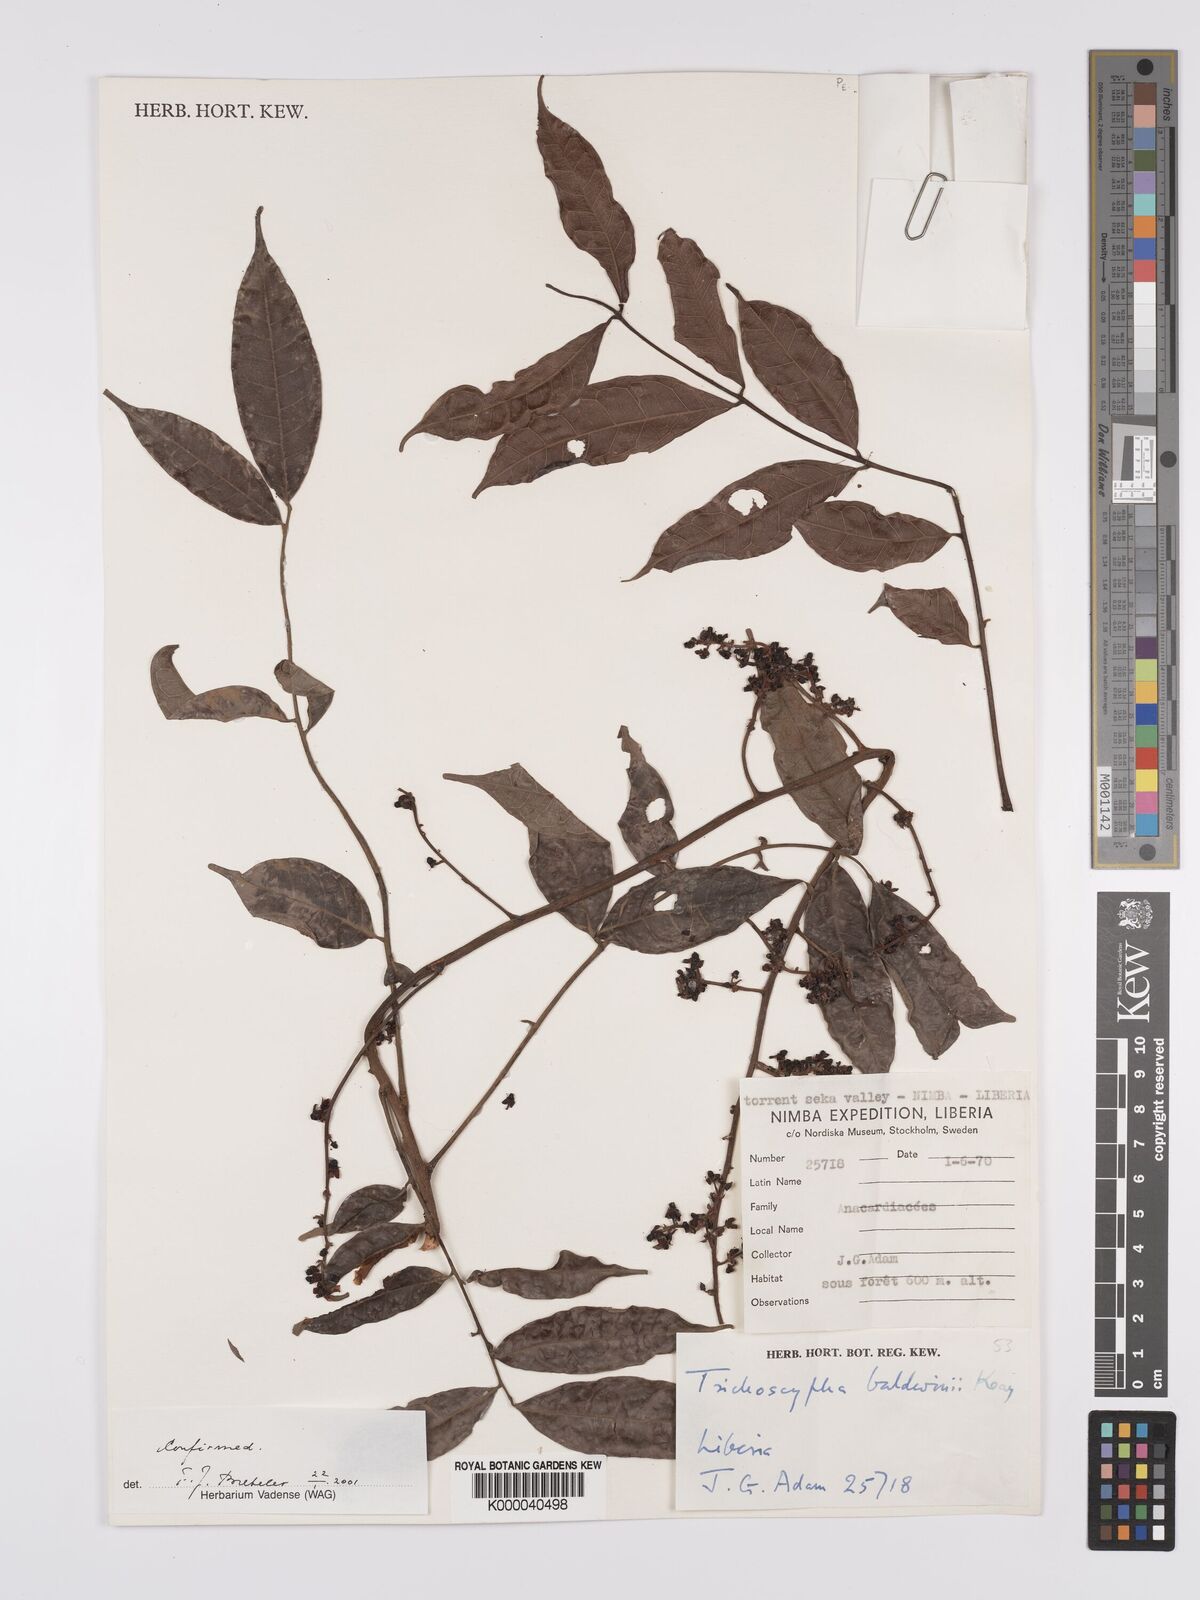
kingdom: Plantae
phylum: Tracheophyta
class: Magnoliopsida
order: Sapindales
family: Anacardiaceae
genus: Trichoscypha
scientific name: Trichoscypha baldwinii
